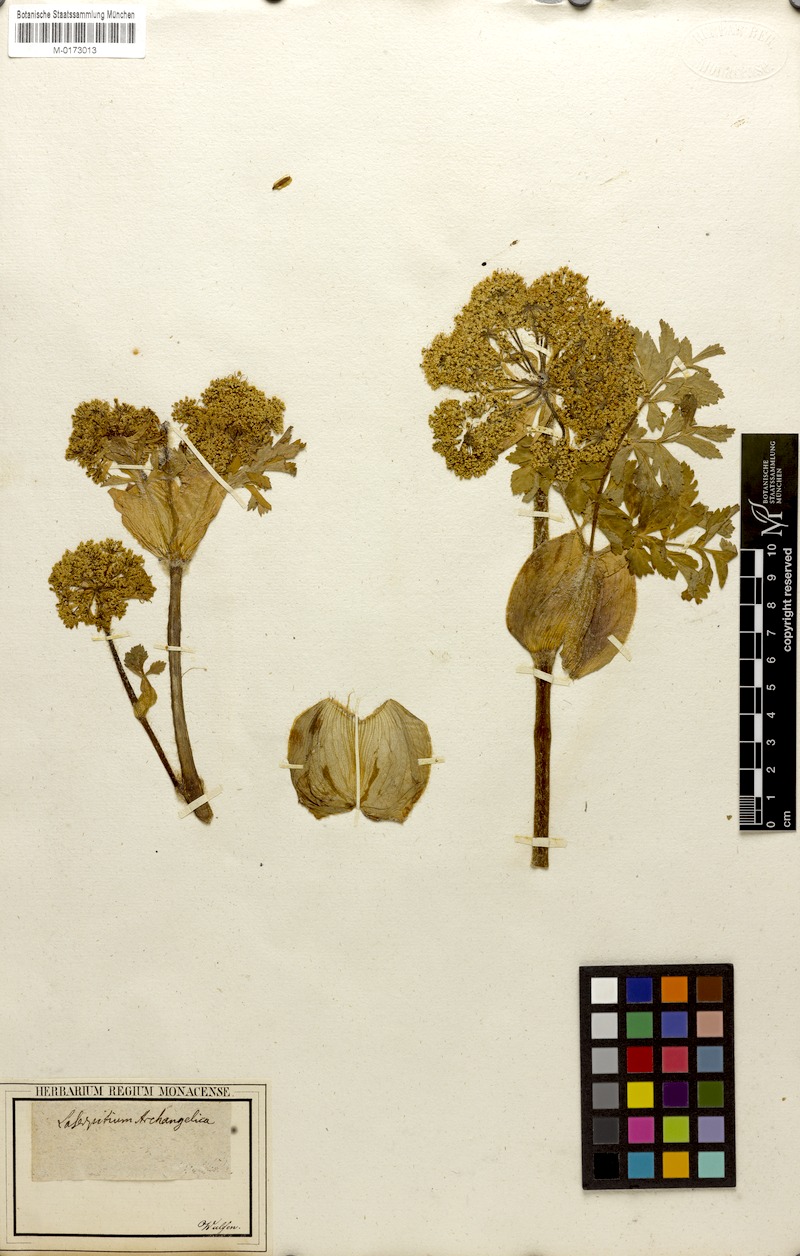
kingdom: Plantae
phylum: Tracheophyta
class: Magnoliopsida
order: Apiales
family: Apiaceae
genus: Laser
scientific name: Laser archangelica
